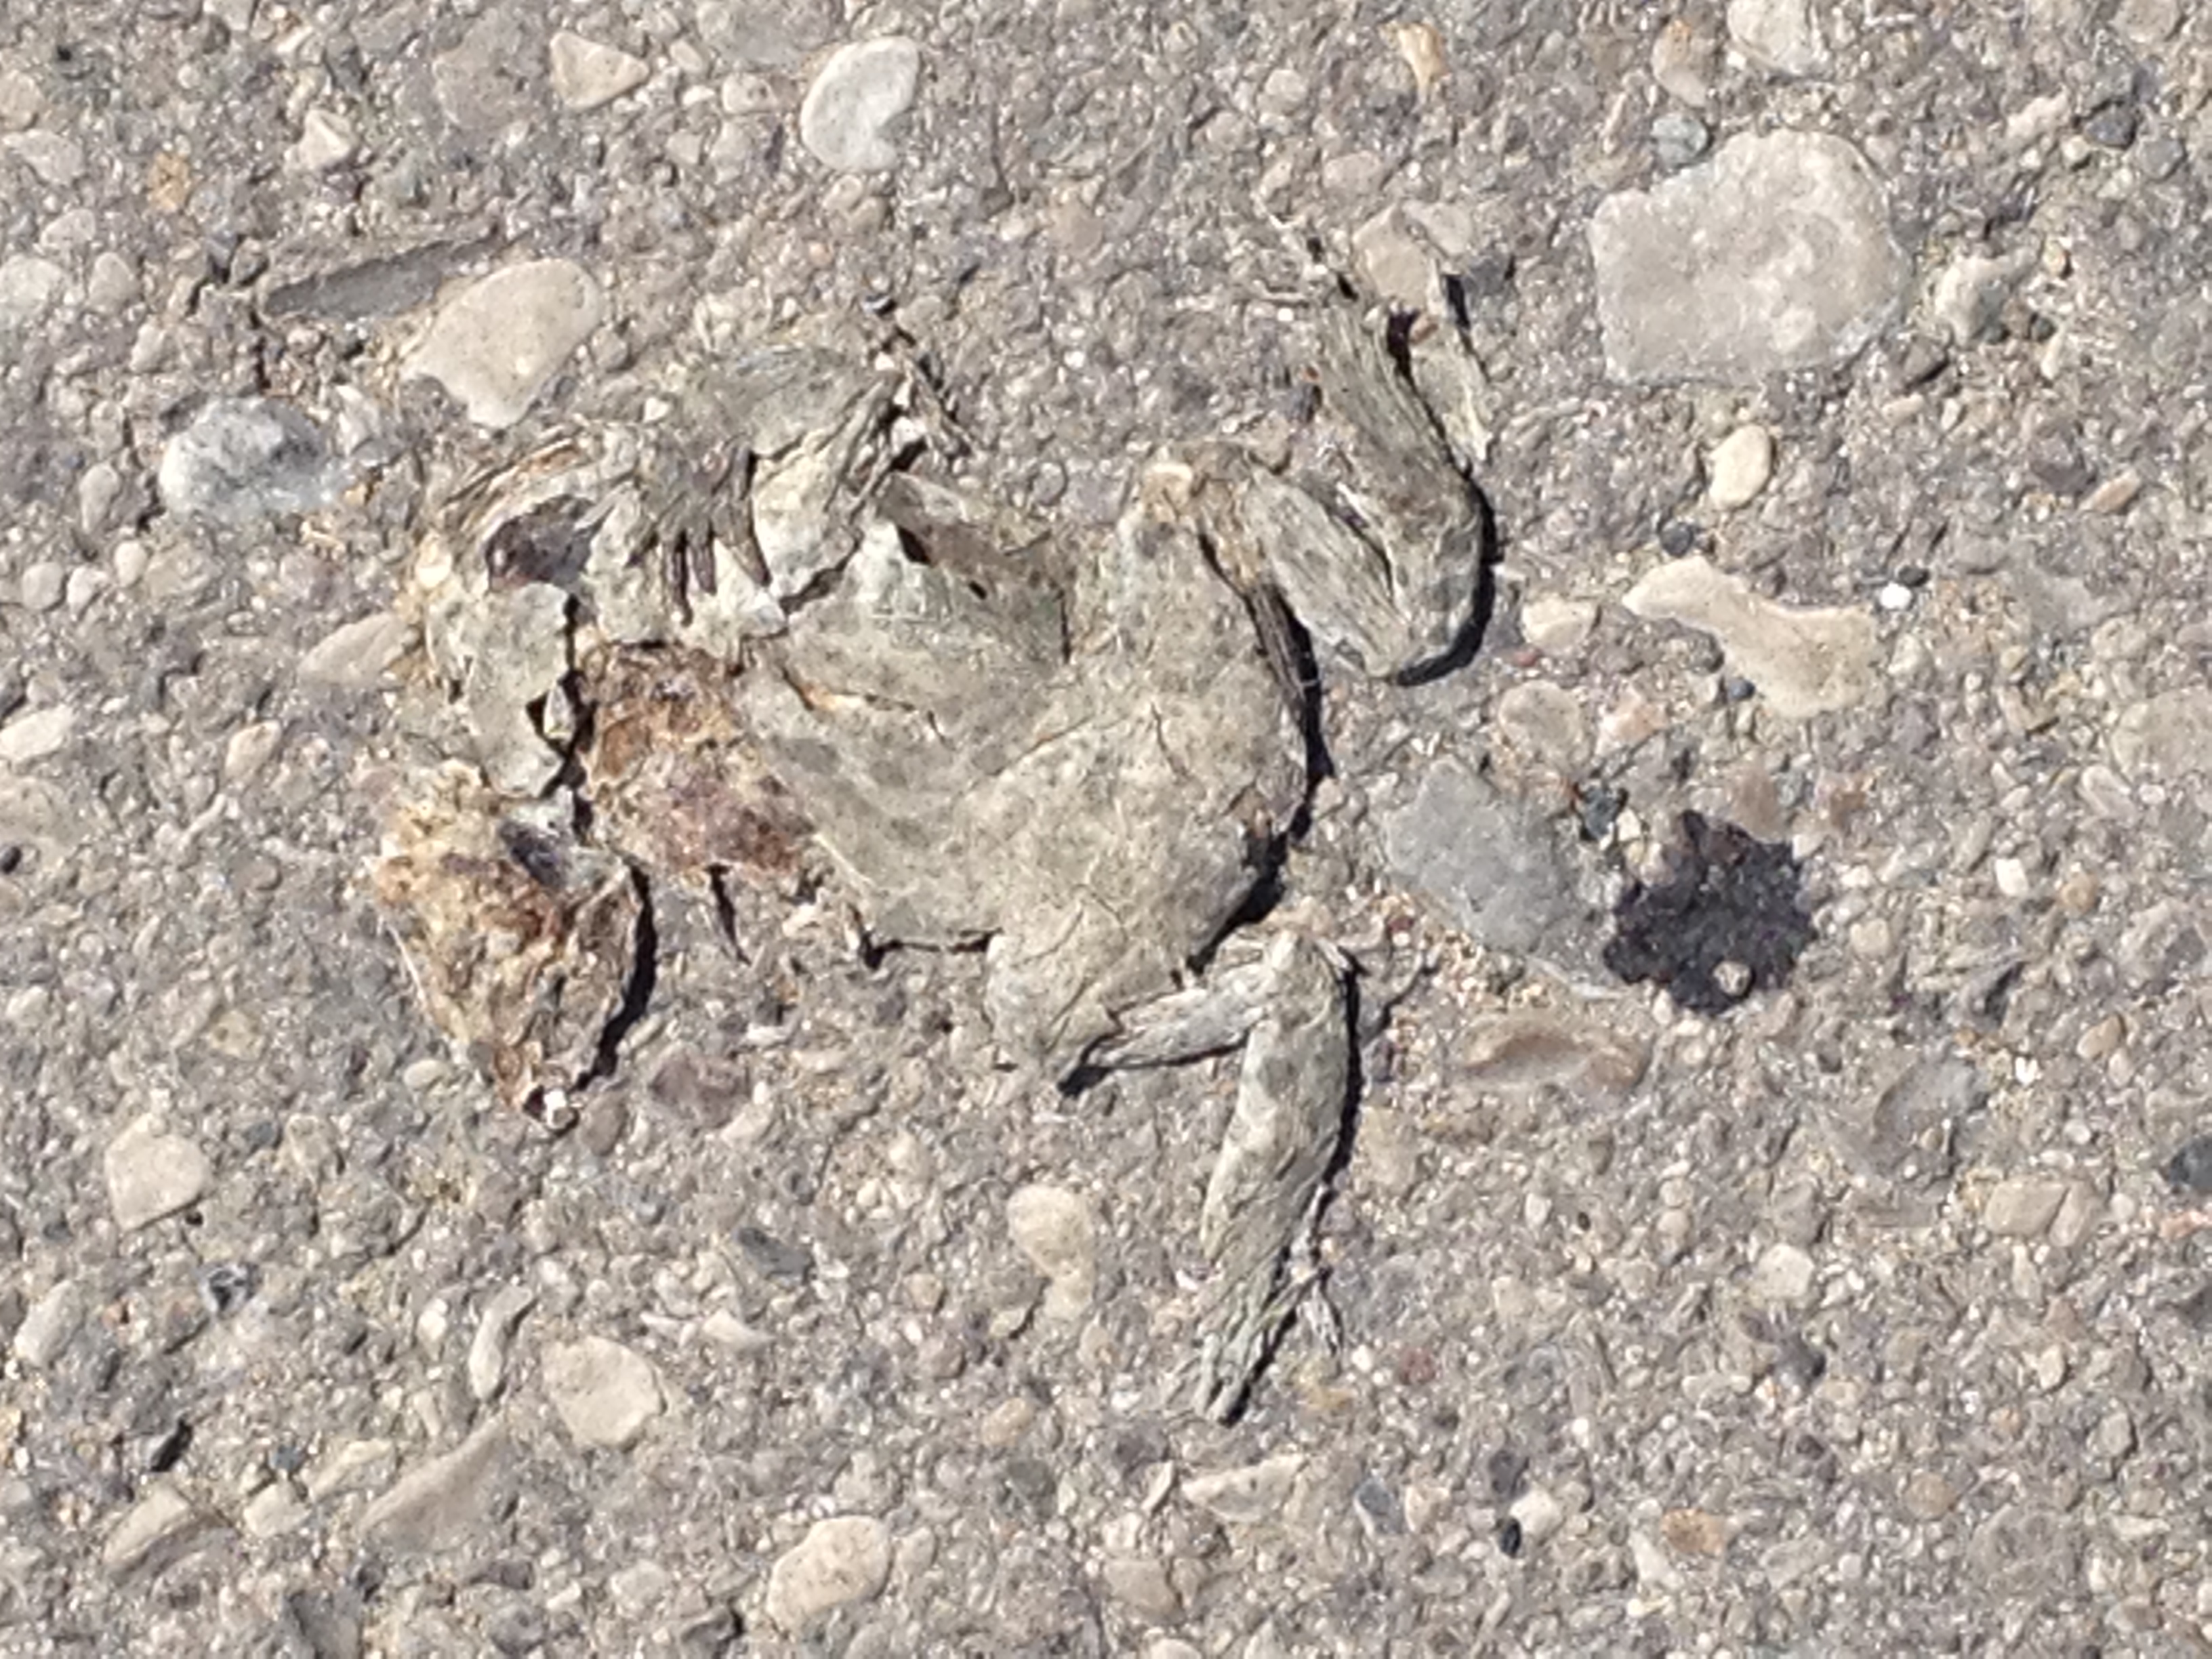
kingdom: Animalia
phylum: Chordata
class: Amphibia
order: Anura
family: Bufonidae
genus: Bufotes
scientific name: Bufotes viridis
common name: European green toad
